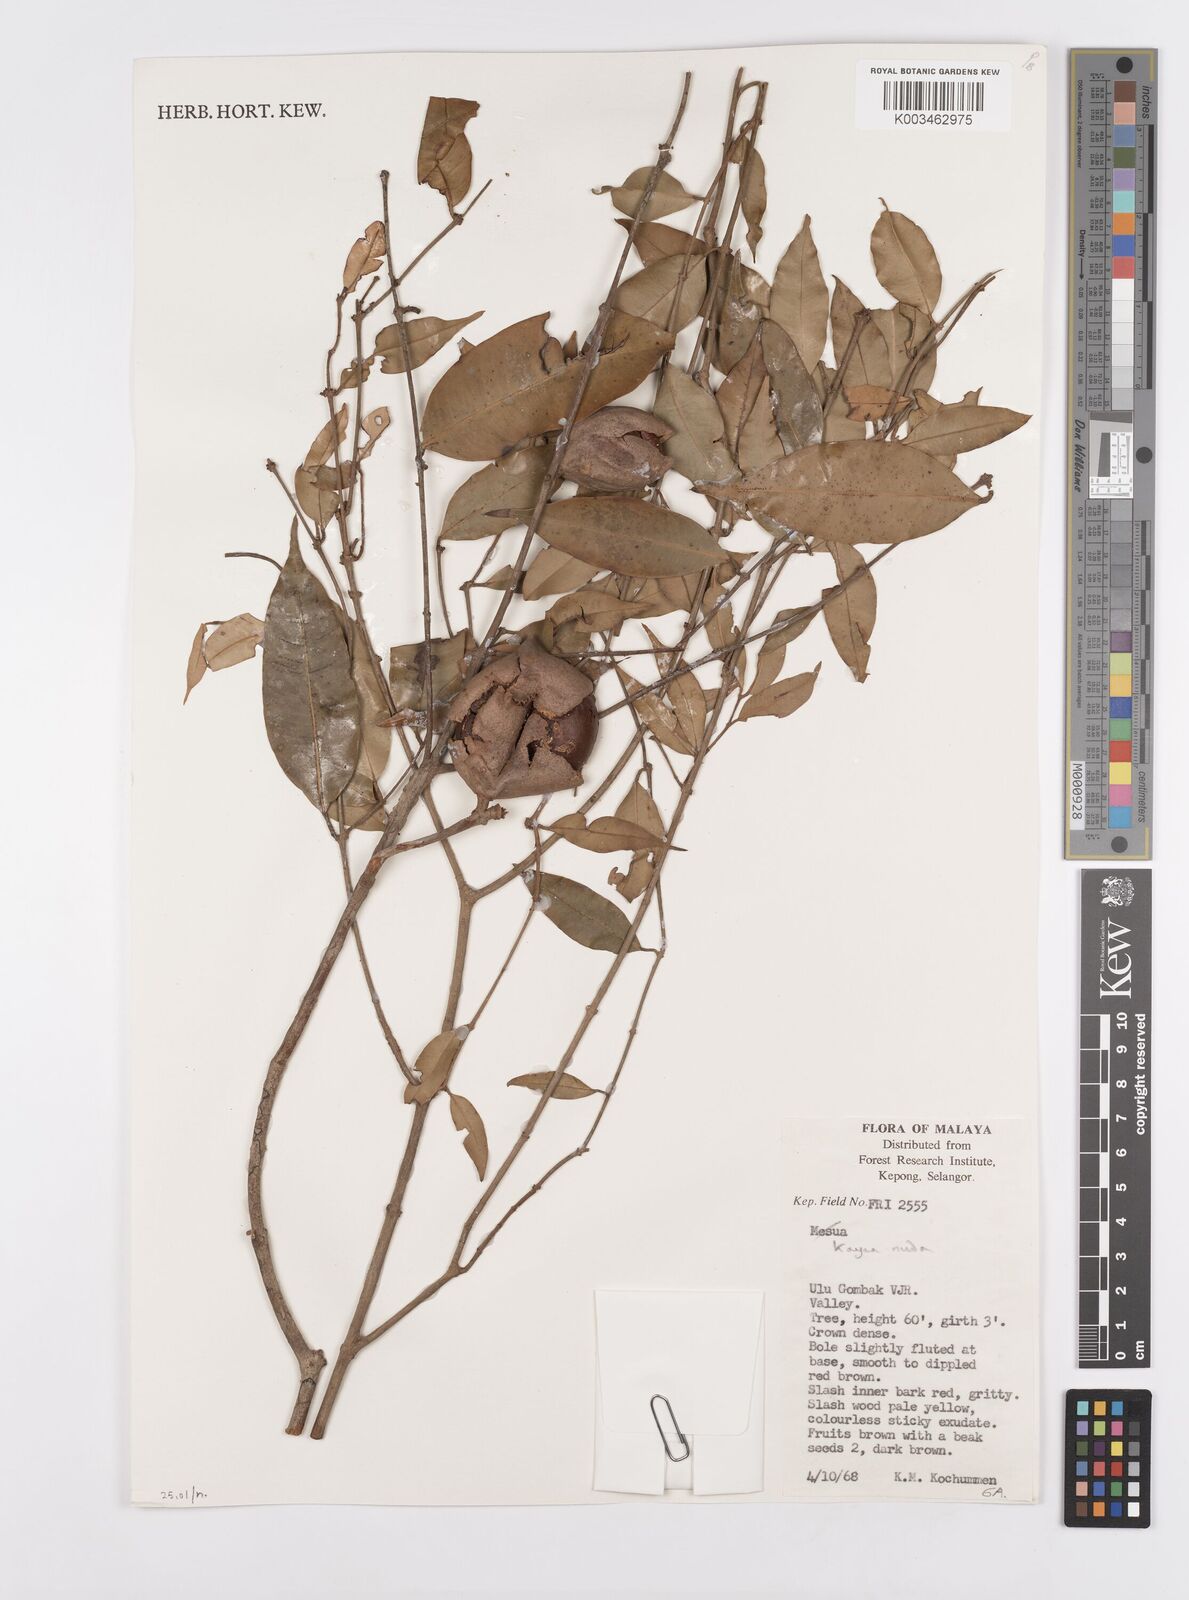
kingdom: Plantae
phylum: Tracheophyta
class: Magnoliopsida
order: Malpighiales
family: Calophyllaceae
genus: Kayea
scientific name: Kayea
